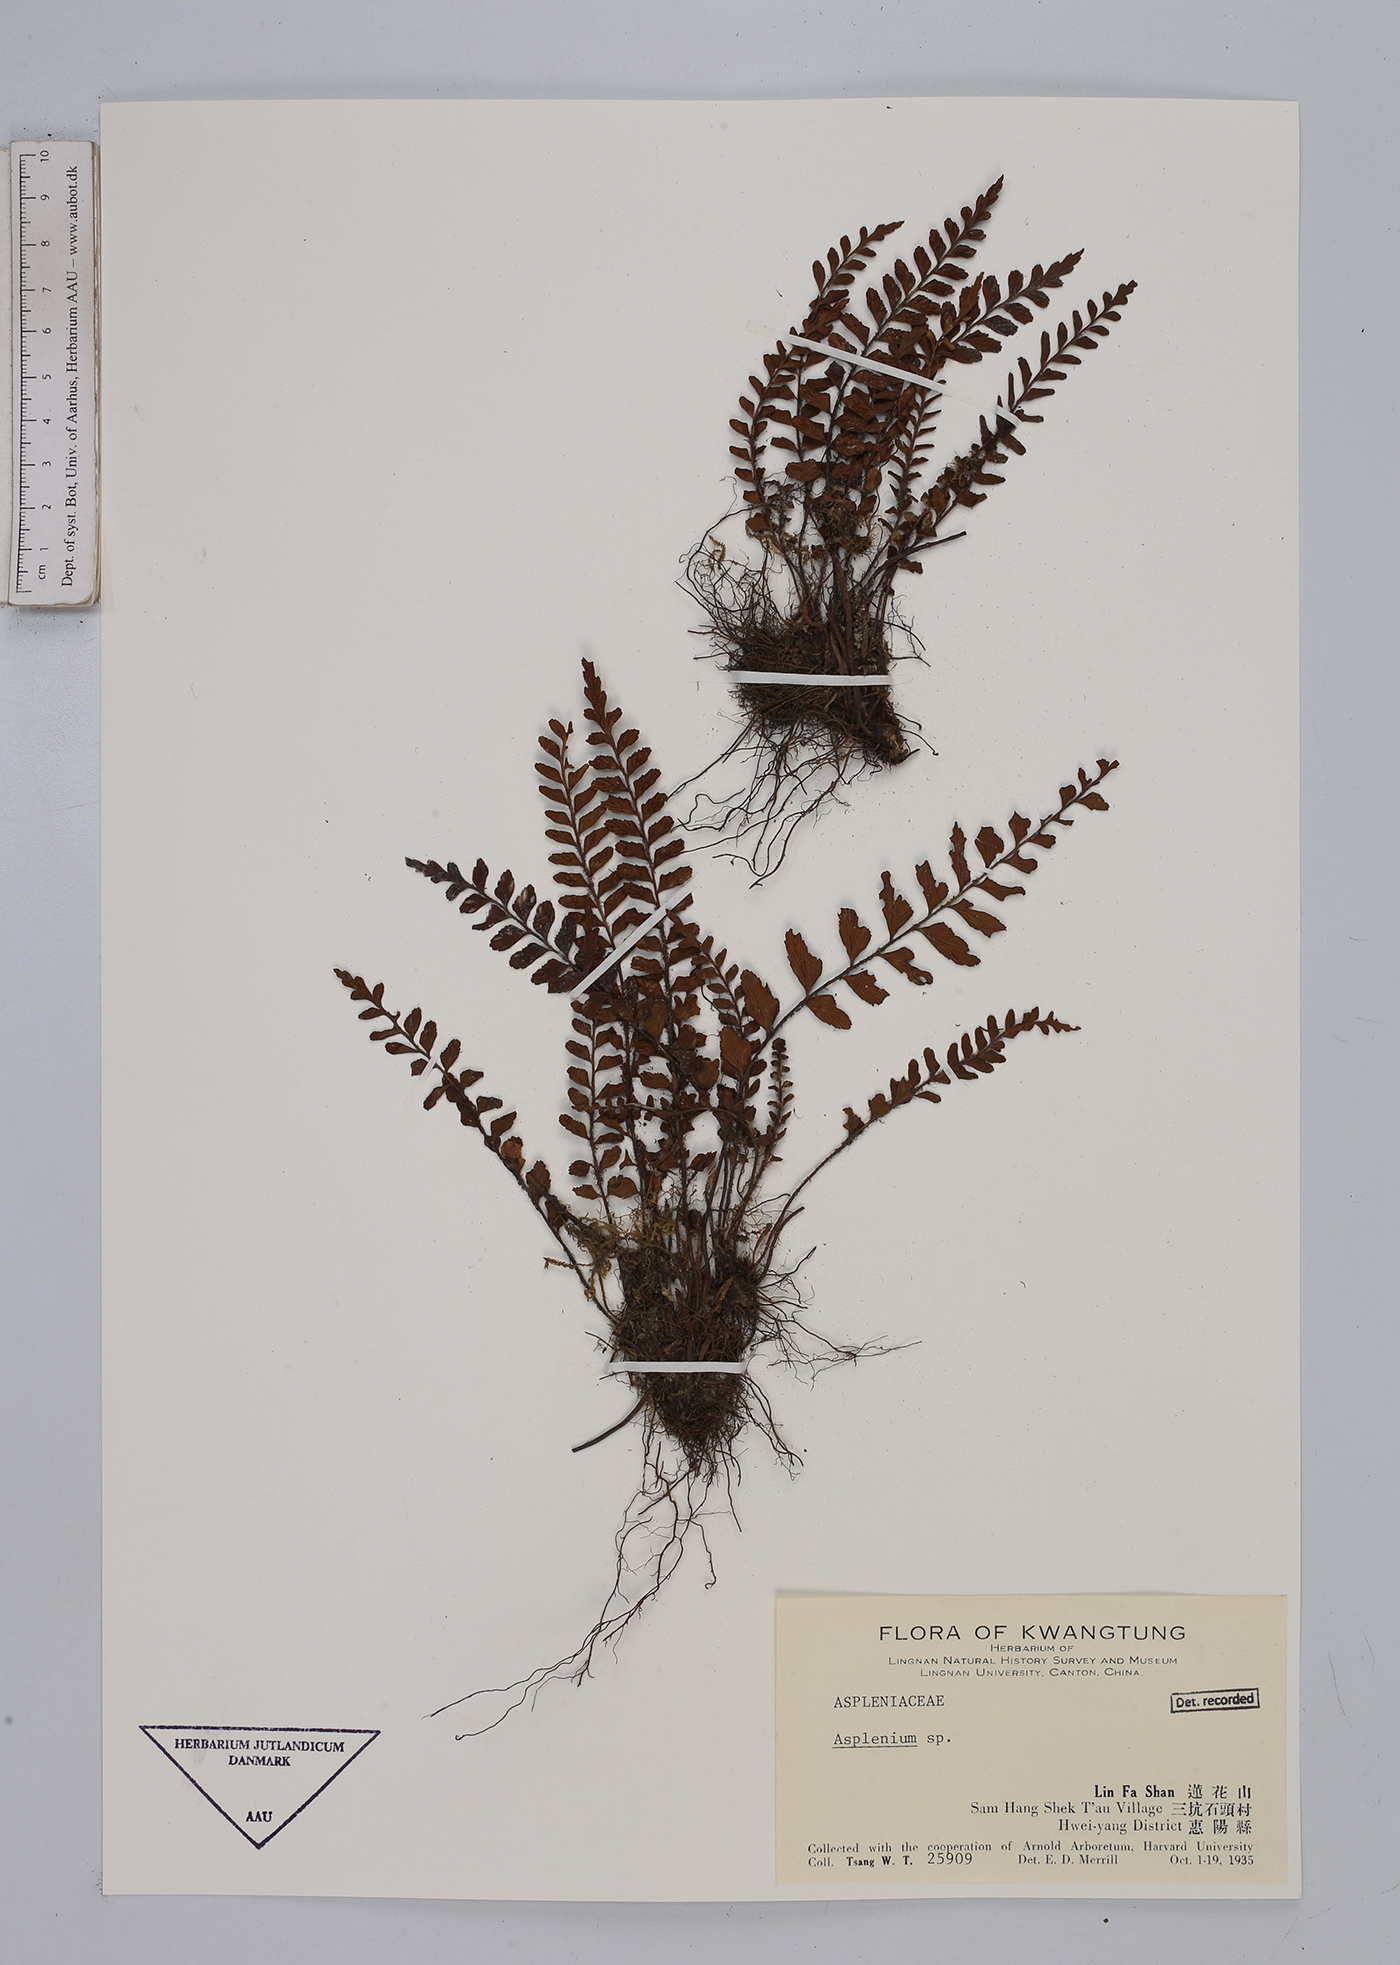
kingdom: Plantae
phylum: Tracheophyta
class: Polypodiopsida
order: Polypodiales
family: Aspleniaceae
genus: Asplenium
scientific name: Asplenium
